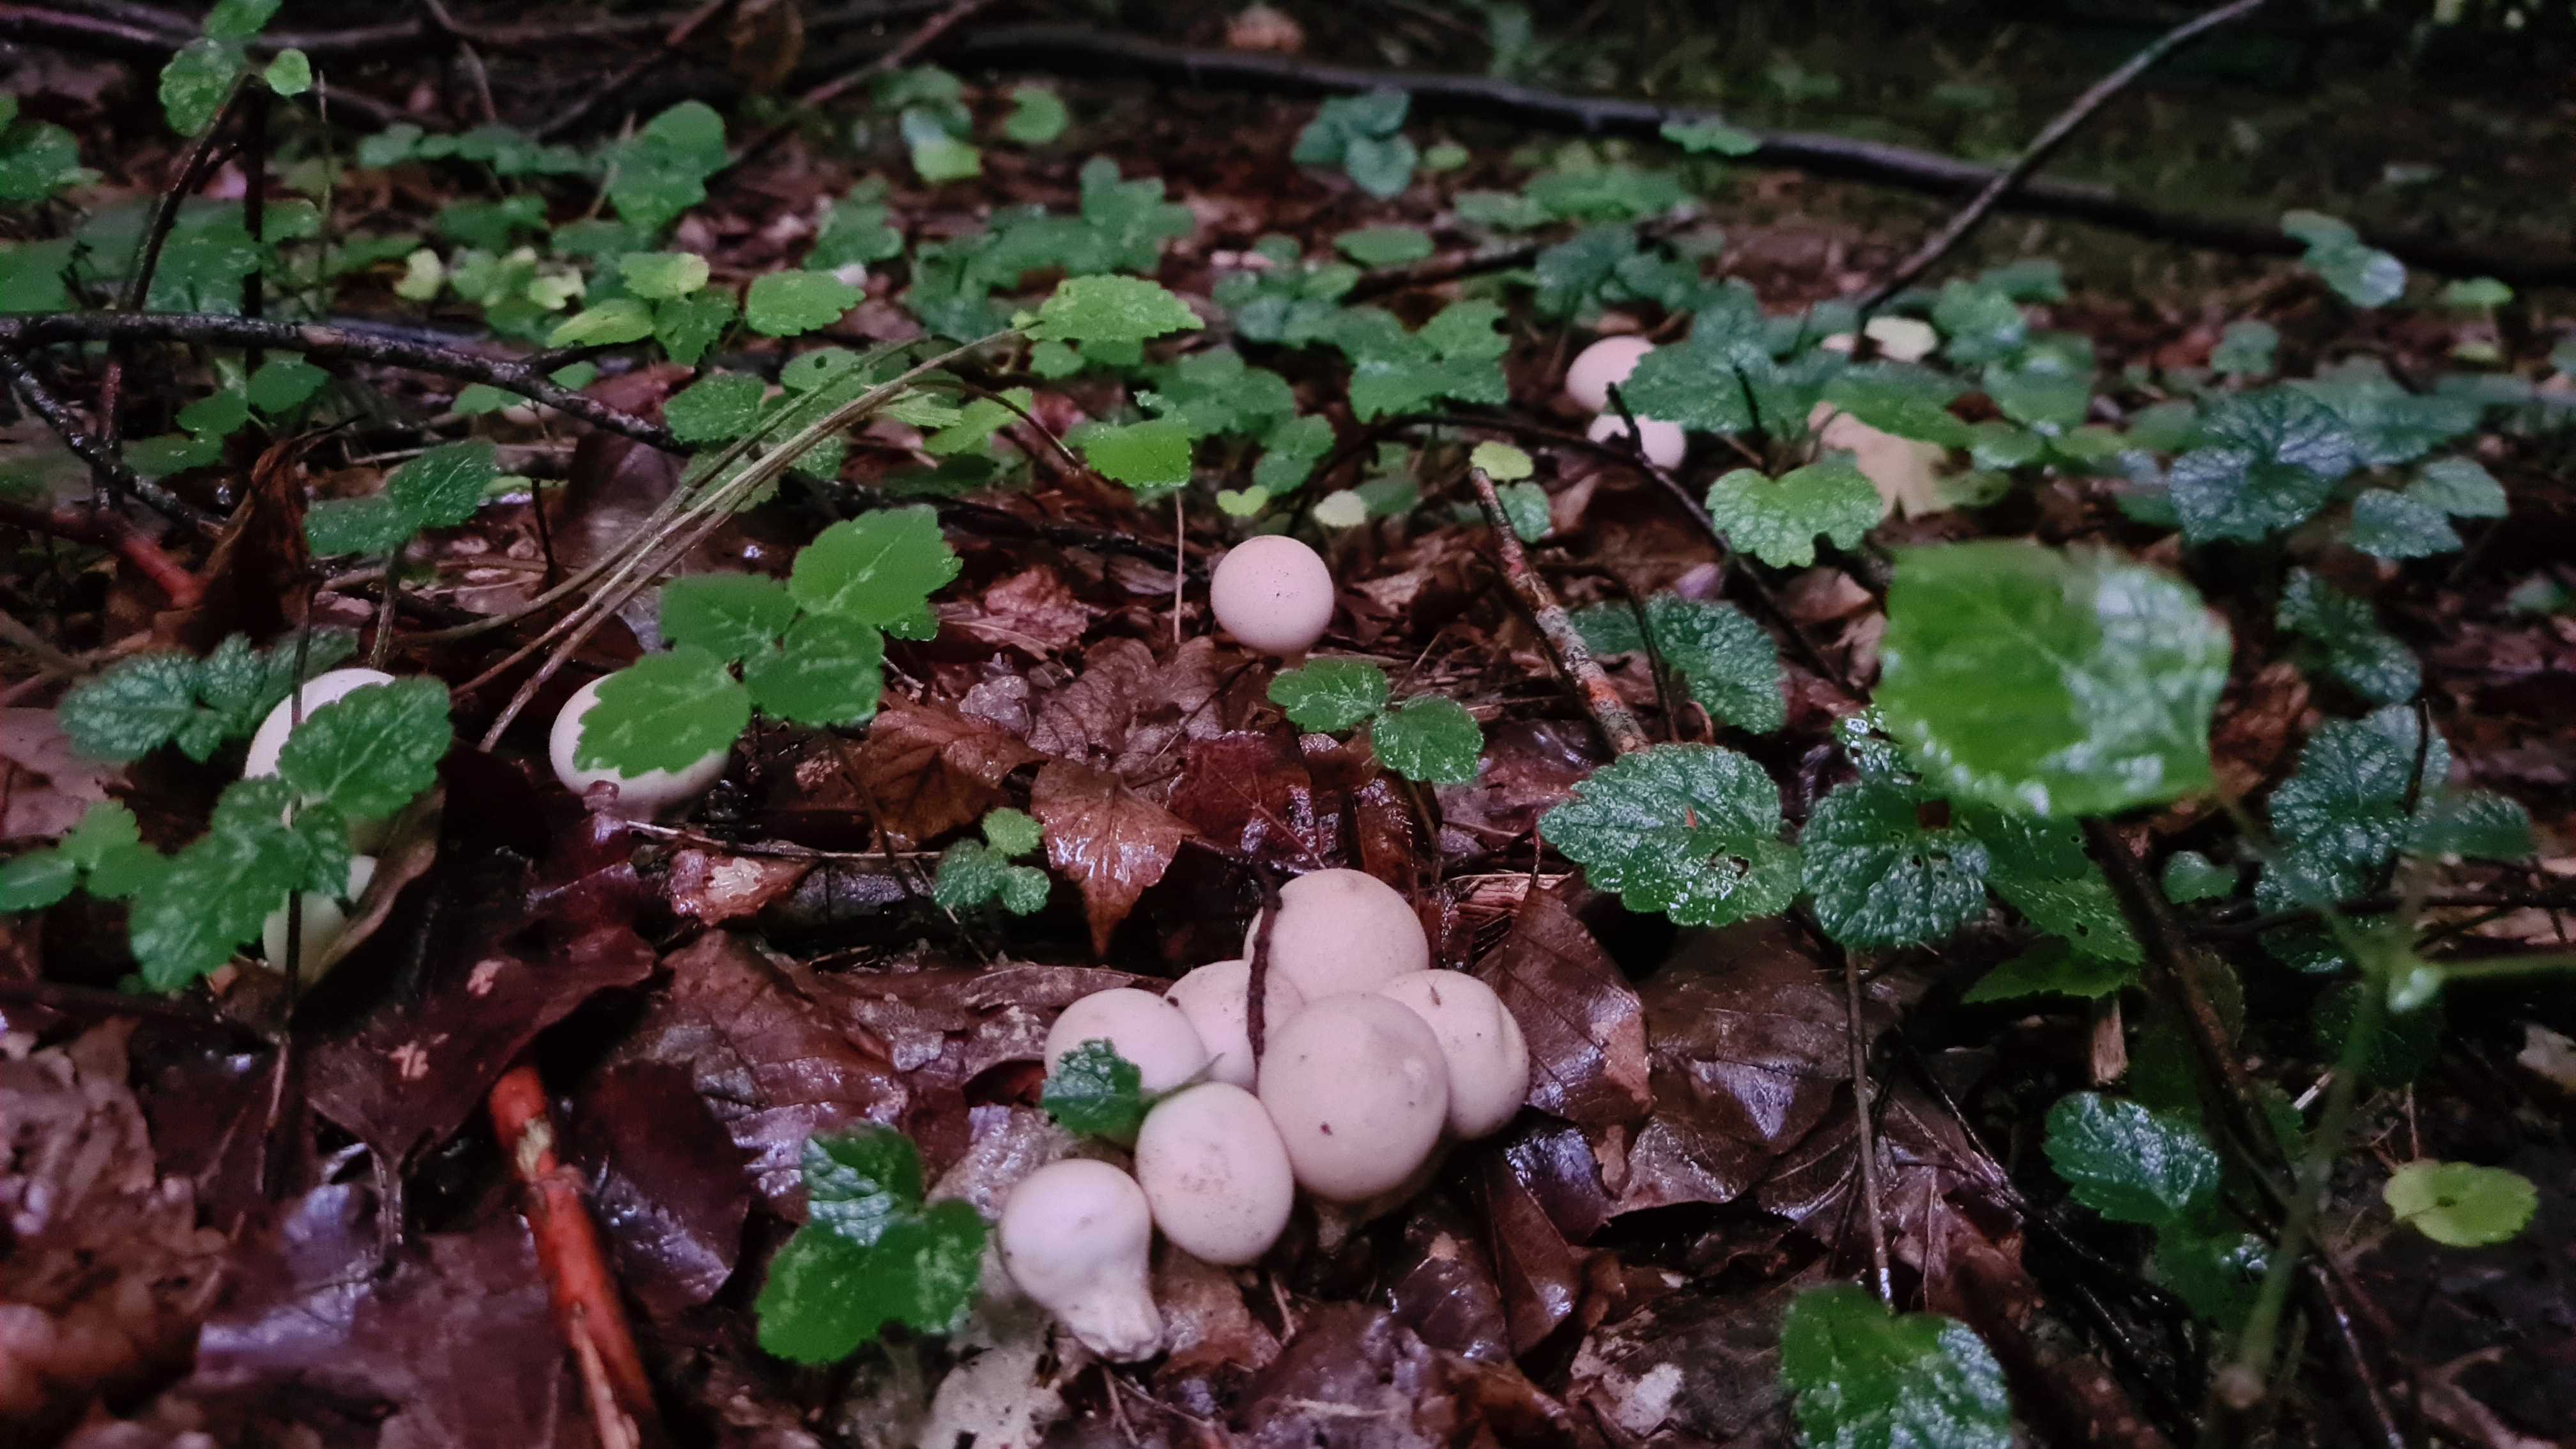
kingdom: Fungi
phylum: Basidiomycota
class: Agaricomycetes
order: Agaricales
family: Lycoperdaceae
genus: Apioperdon
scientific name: Apioperdon pyriforme
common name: pære-støvbold
